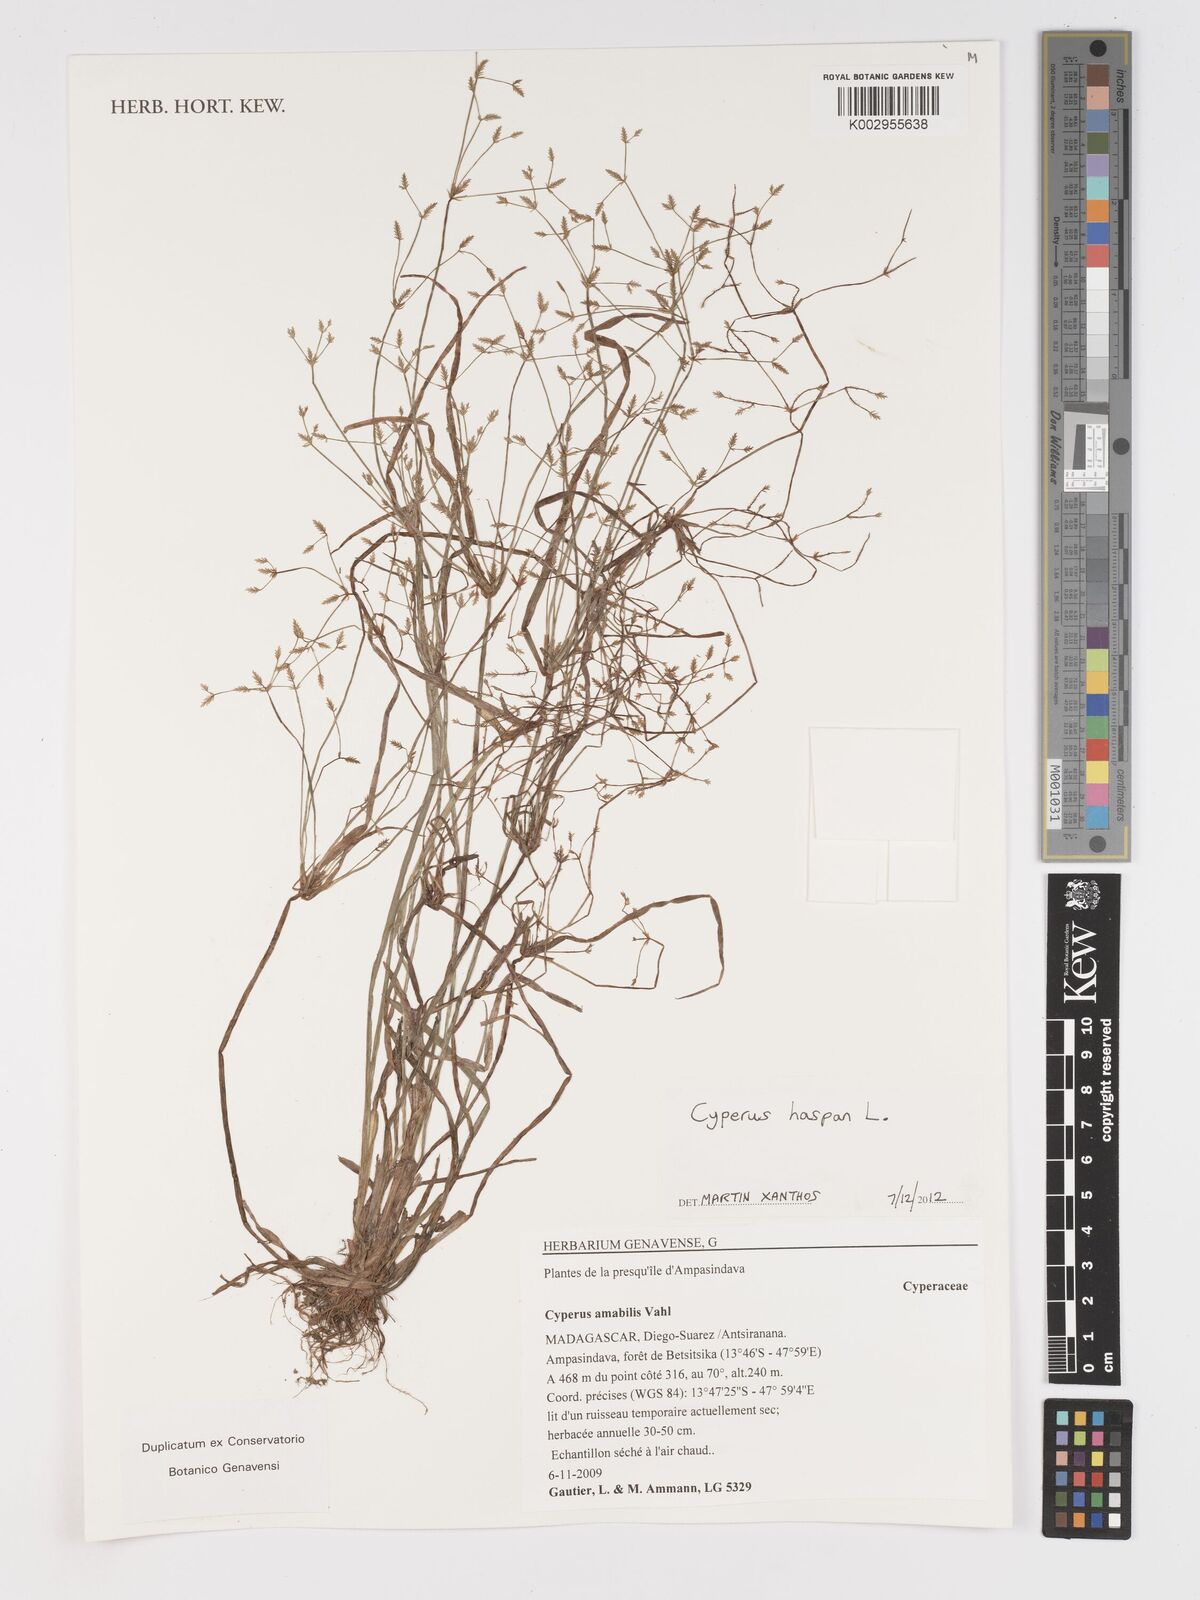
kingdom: Plantae
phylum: Tracheophyta
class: Liliopsida
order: Poales
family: Cyperaceae
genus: Cyperus
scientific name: Cyperus haspan
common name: Haspan flatsedge
